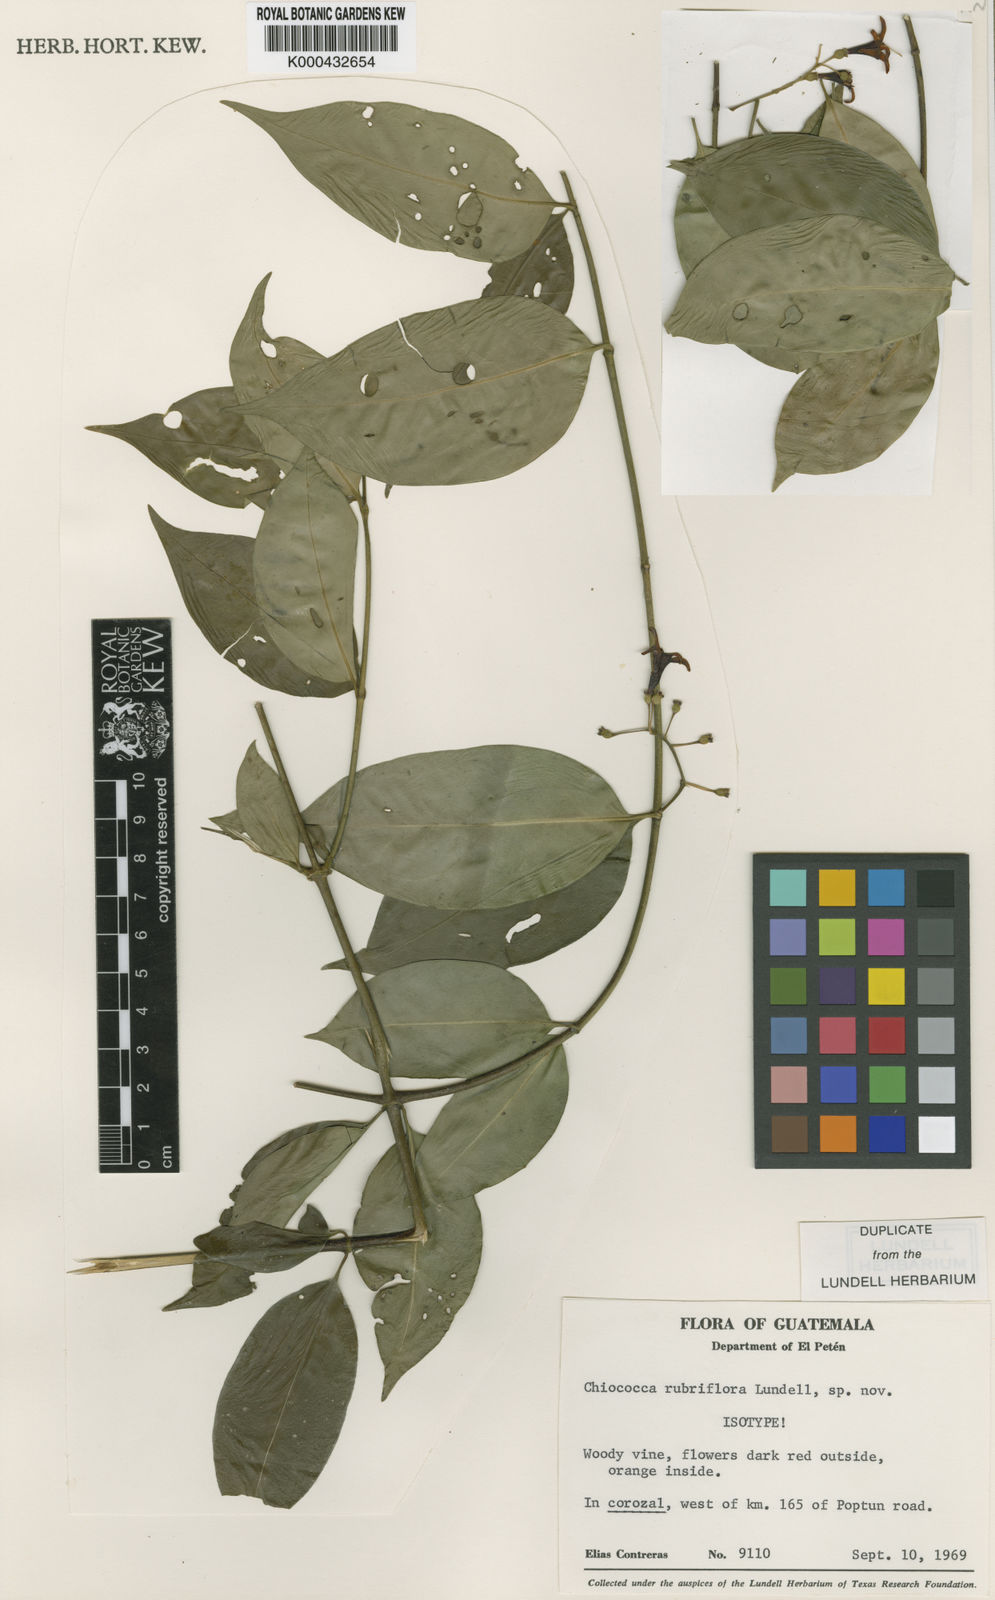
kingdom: Plantae
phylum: Tracheophyta
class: Magnoliopsida
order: Gentianales
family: Rubiaceae
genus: Chiococca
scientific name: Chiococca rubriflora
